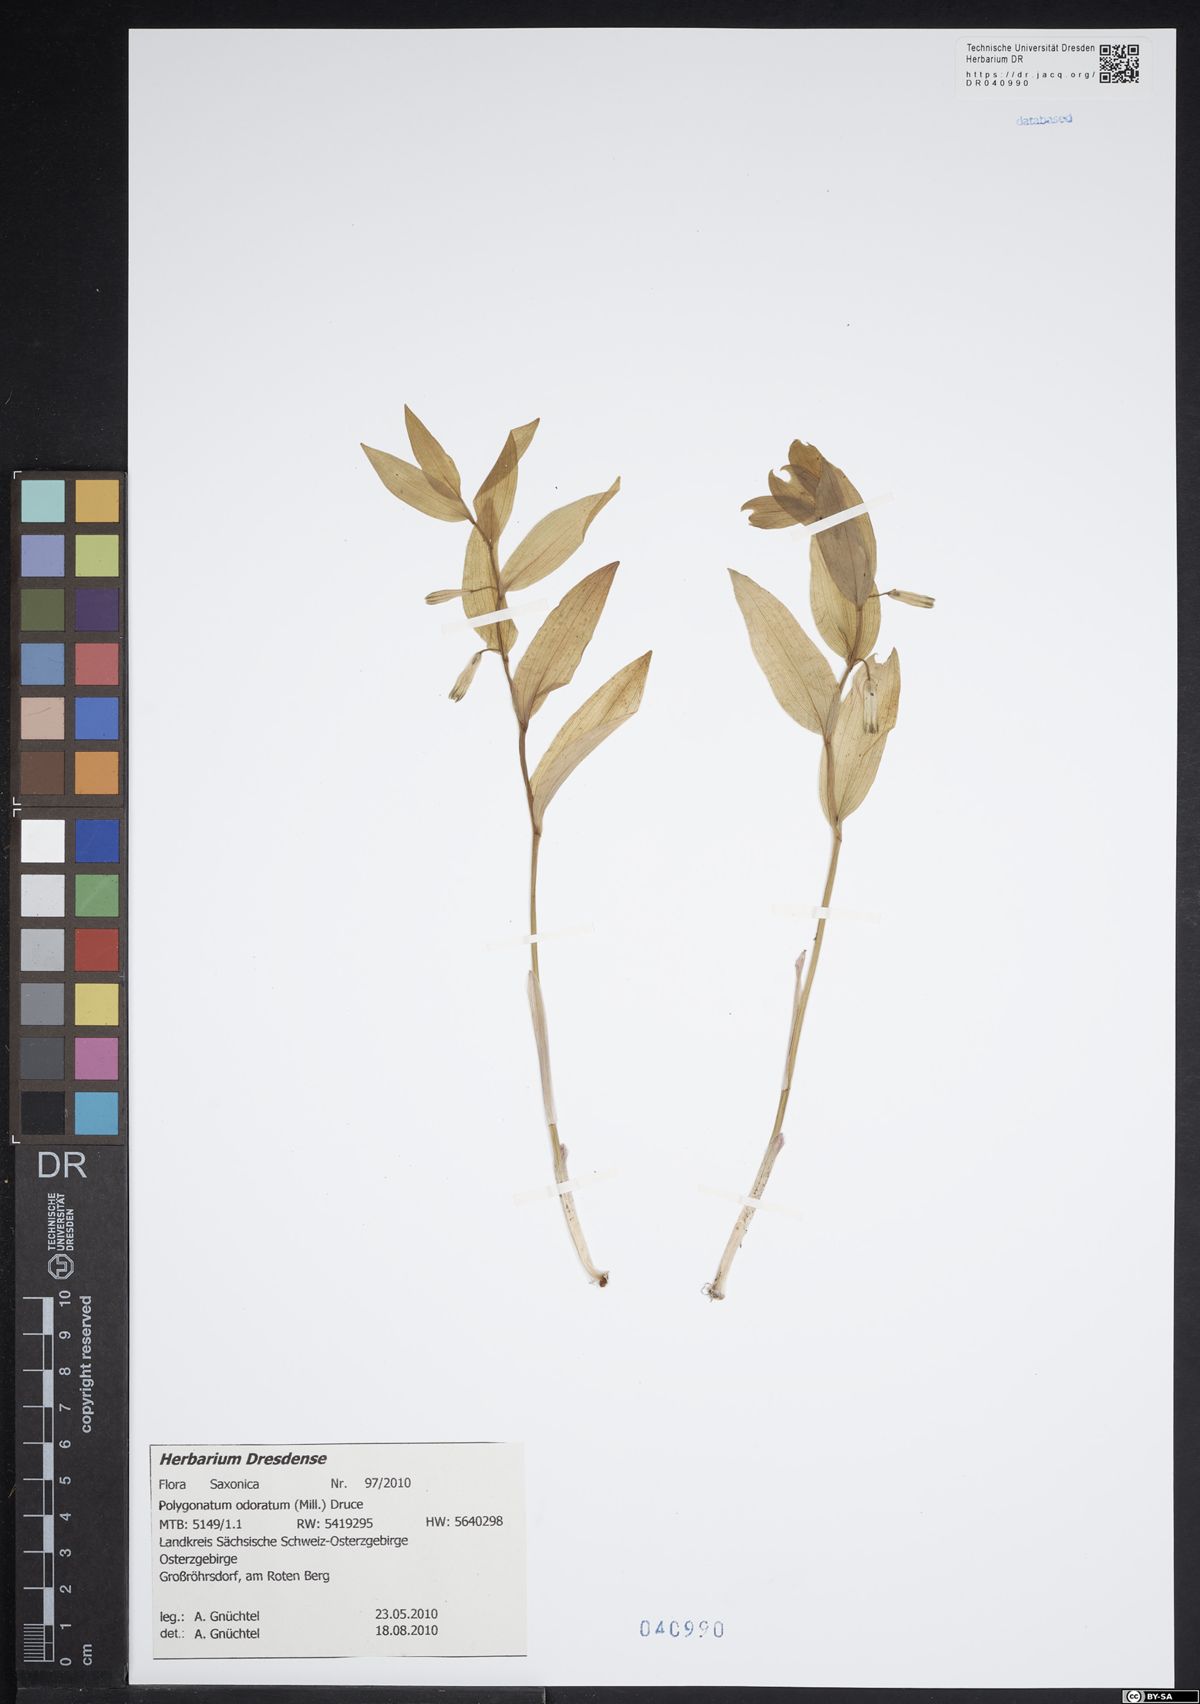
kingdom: Plantae
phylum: Tracheophyta
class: Liliopsida
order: Asparagales
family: Asparagaceae
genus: Polygonatum
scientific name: Polygonatum odoratum
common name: Angular solomon's-seal
